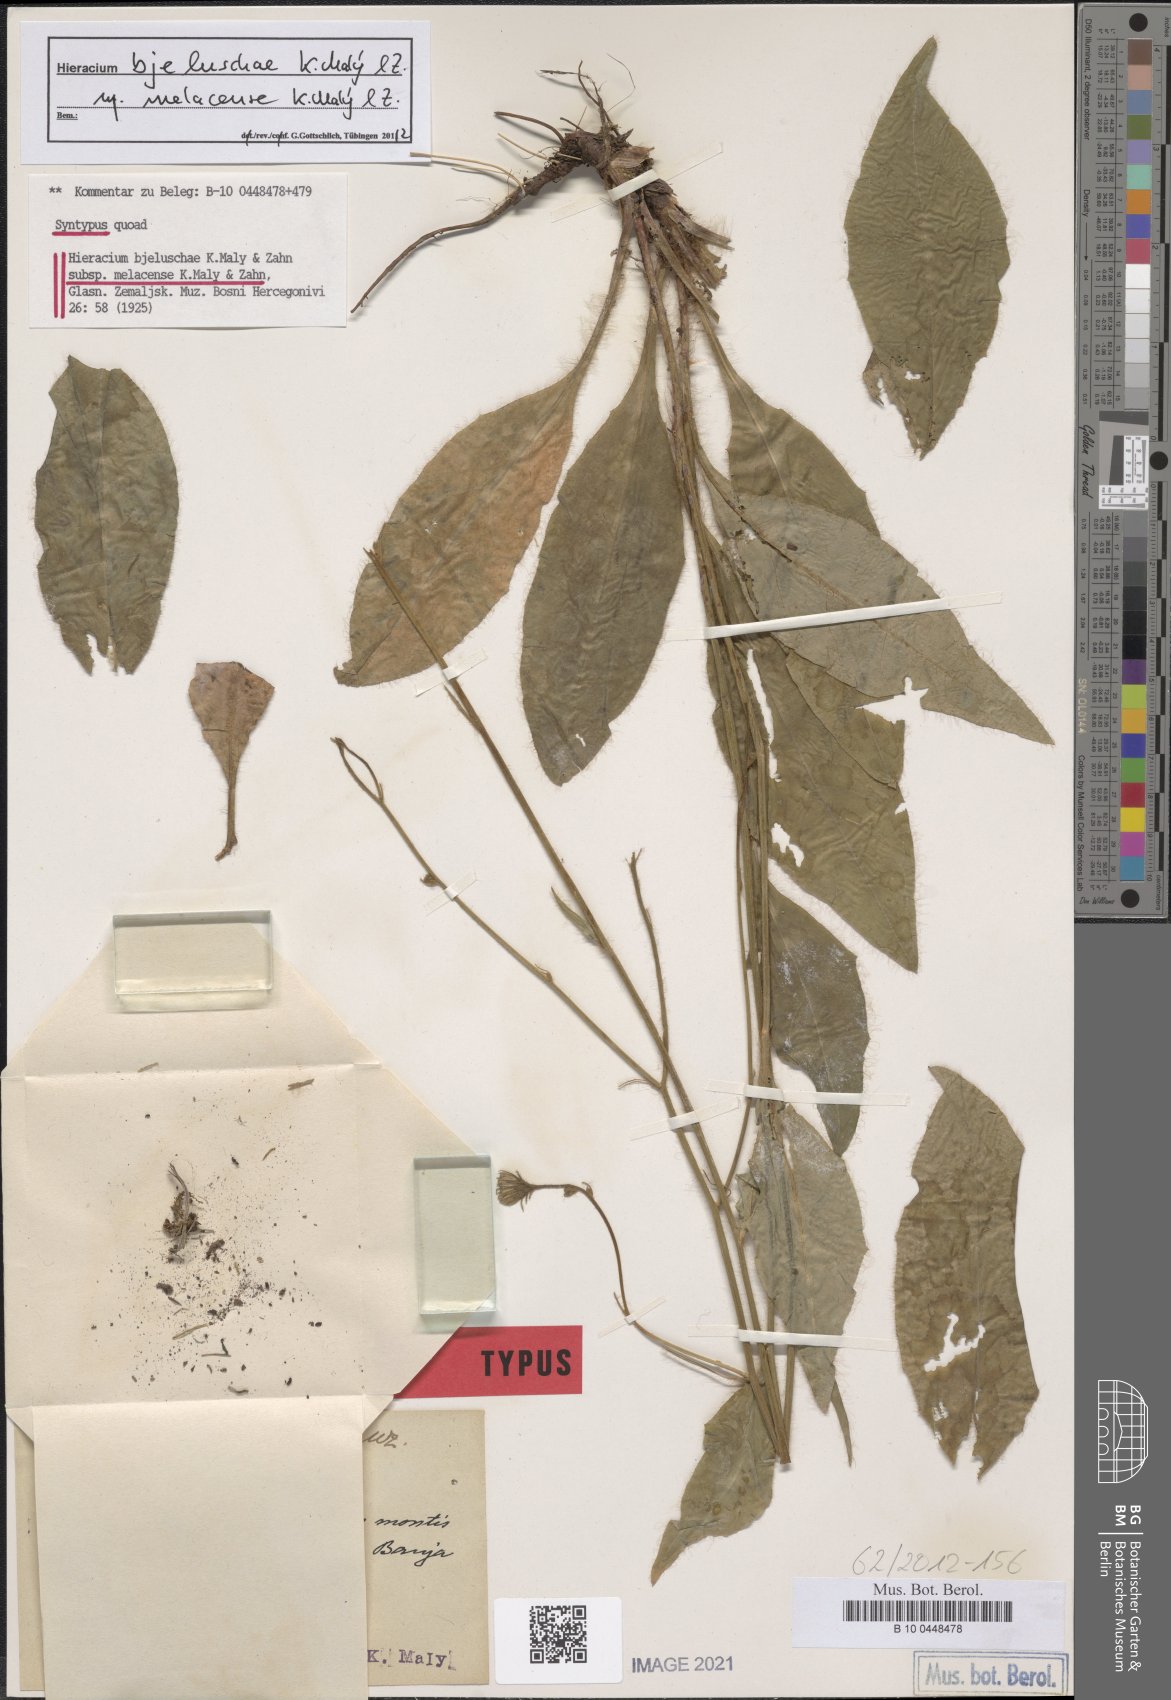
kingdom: Plantae
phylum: Tracheophyta
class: Magnoliopsida
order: Asterales
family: Asteraceae
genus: Hieracium
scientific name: Hieracium bjeluschae
